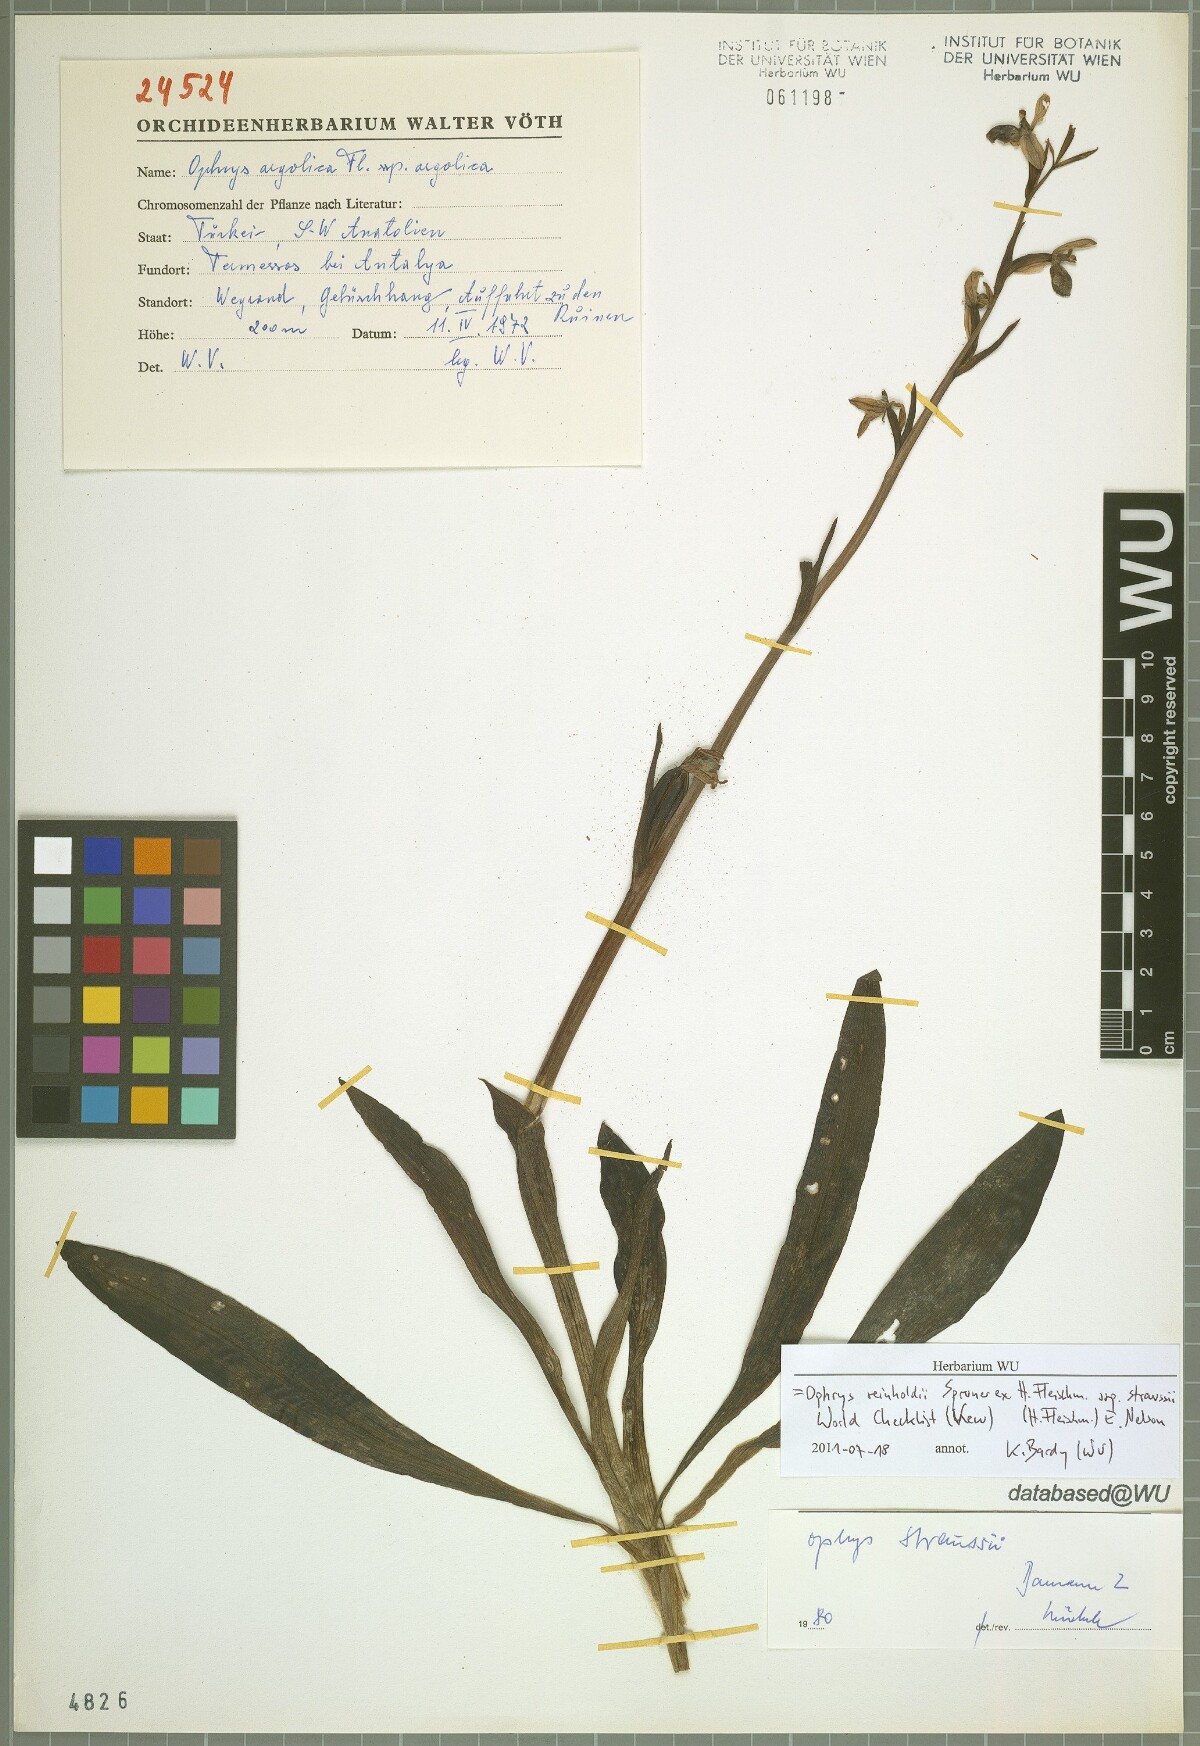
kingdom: Plantae
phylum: Tracheophyta
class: Liliopsida
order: Asparagales
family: Orchidaceae
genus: Ophrys
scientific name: Ophrys reinholdii
